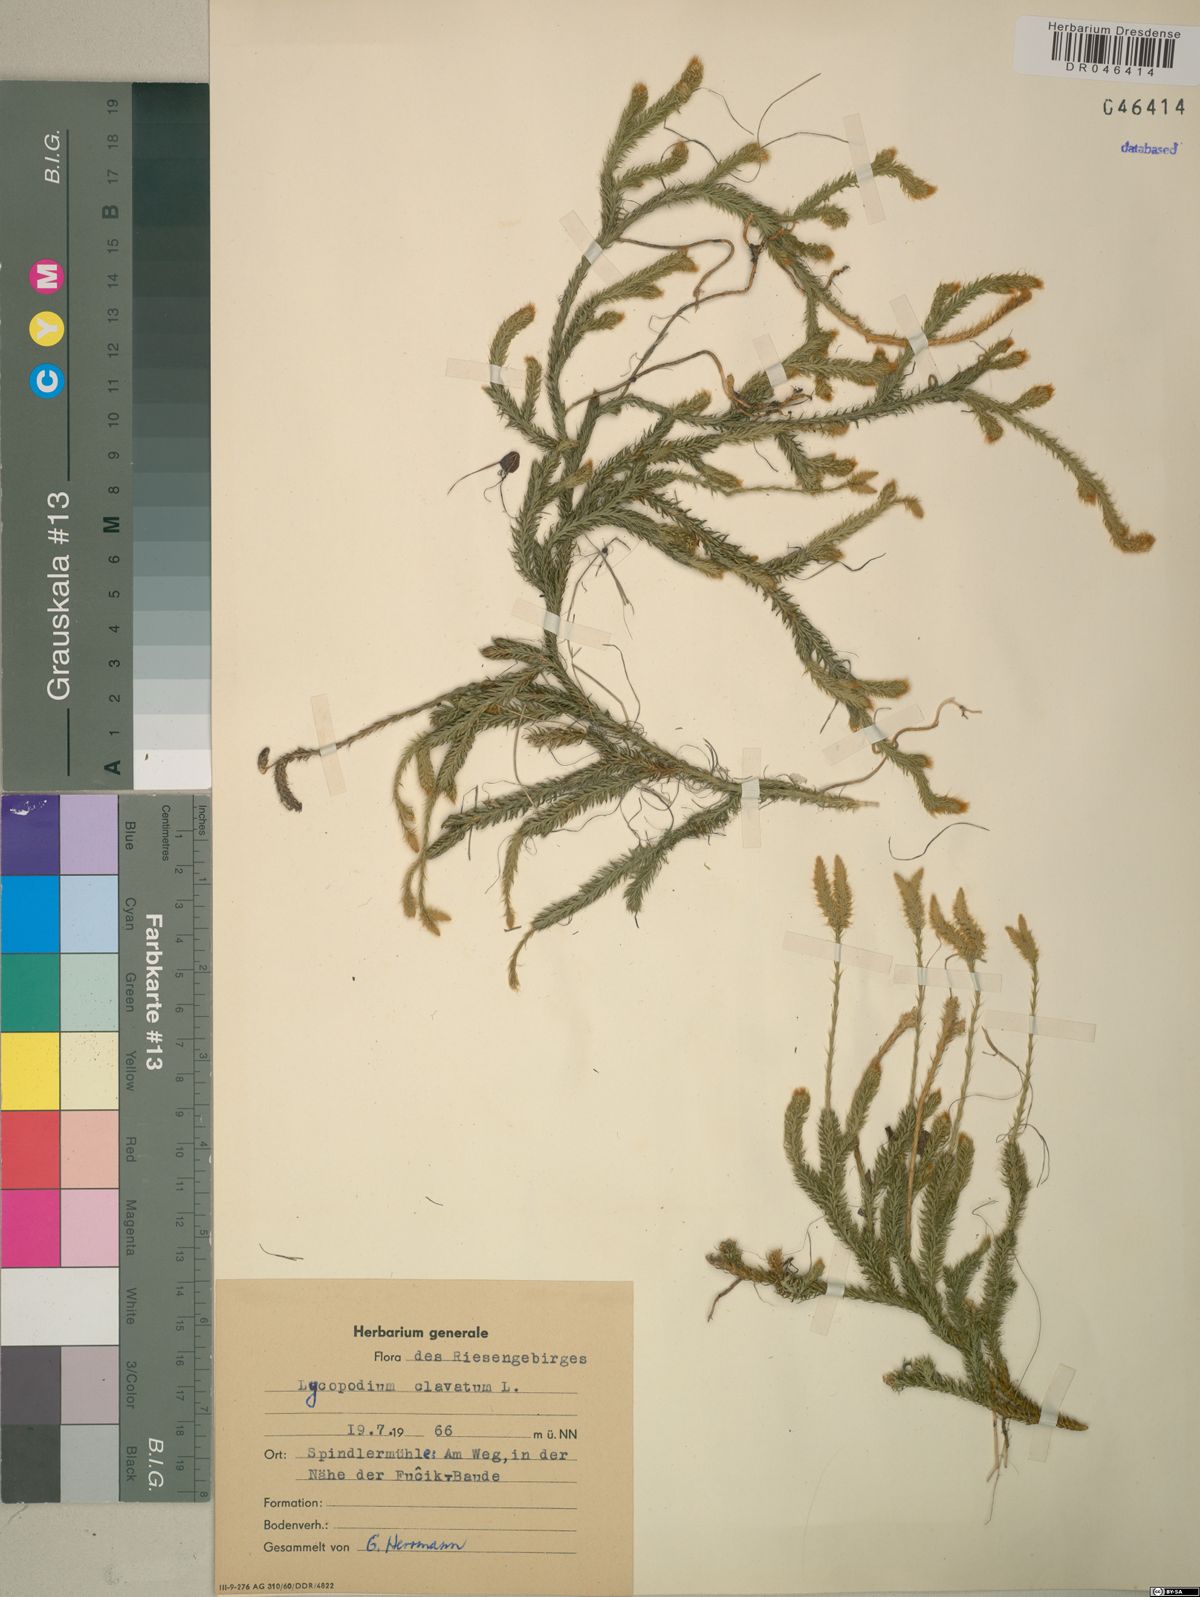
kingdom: Plantae
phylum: Tracheophyta
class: Lycopodiopsida
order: Lycopodiales
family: Lycopodiaceae
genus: Lycopodium
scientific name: Lycopodium clavatum
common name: Stag's-horn clubmoss
